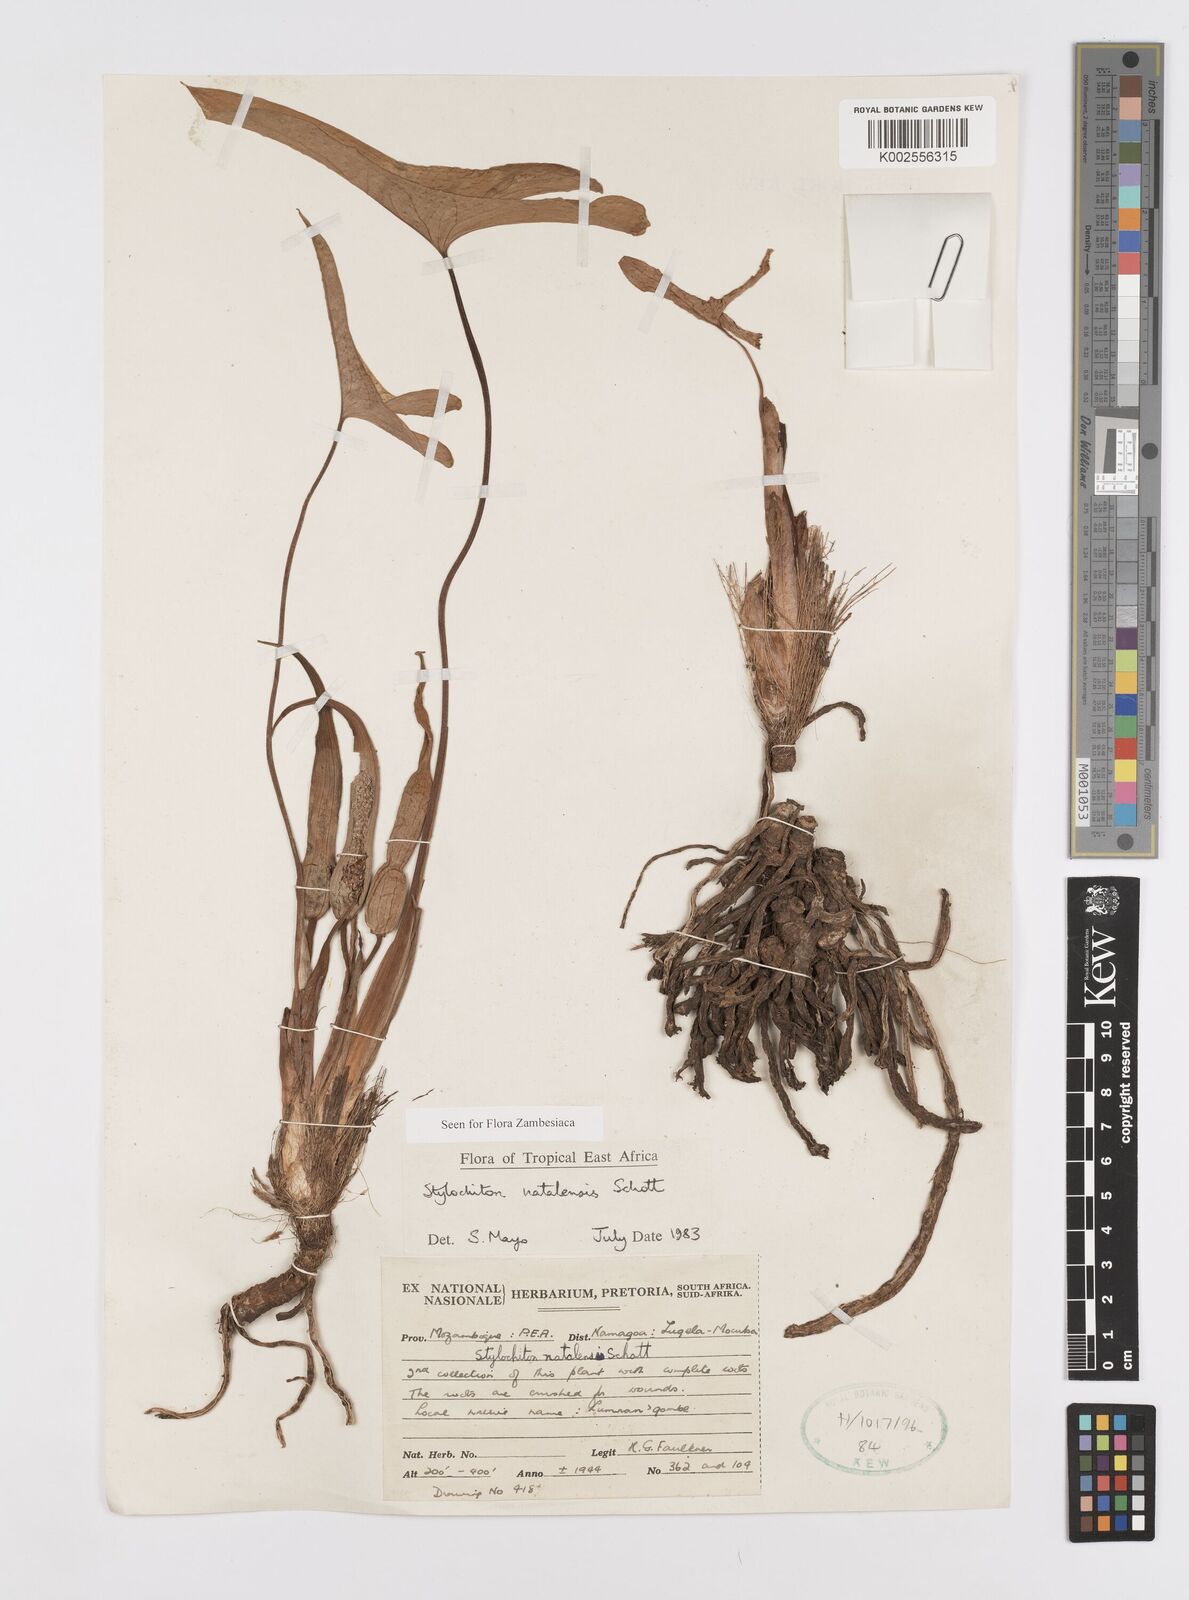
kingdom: Plantae
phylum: Tracheophyta
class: Liliopsida
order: Alismatales
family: Araceae
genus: Stylochaeton
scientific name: Stylochaeton natalense
